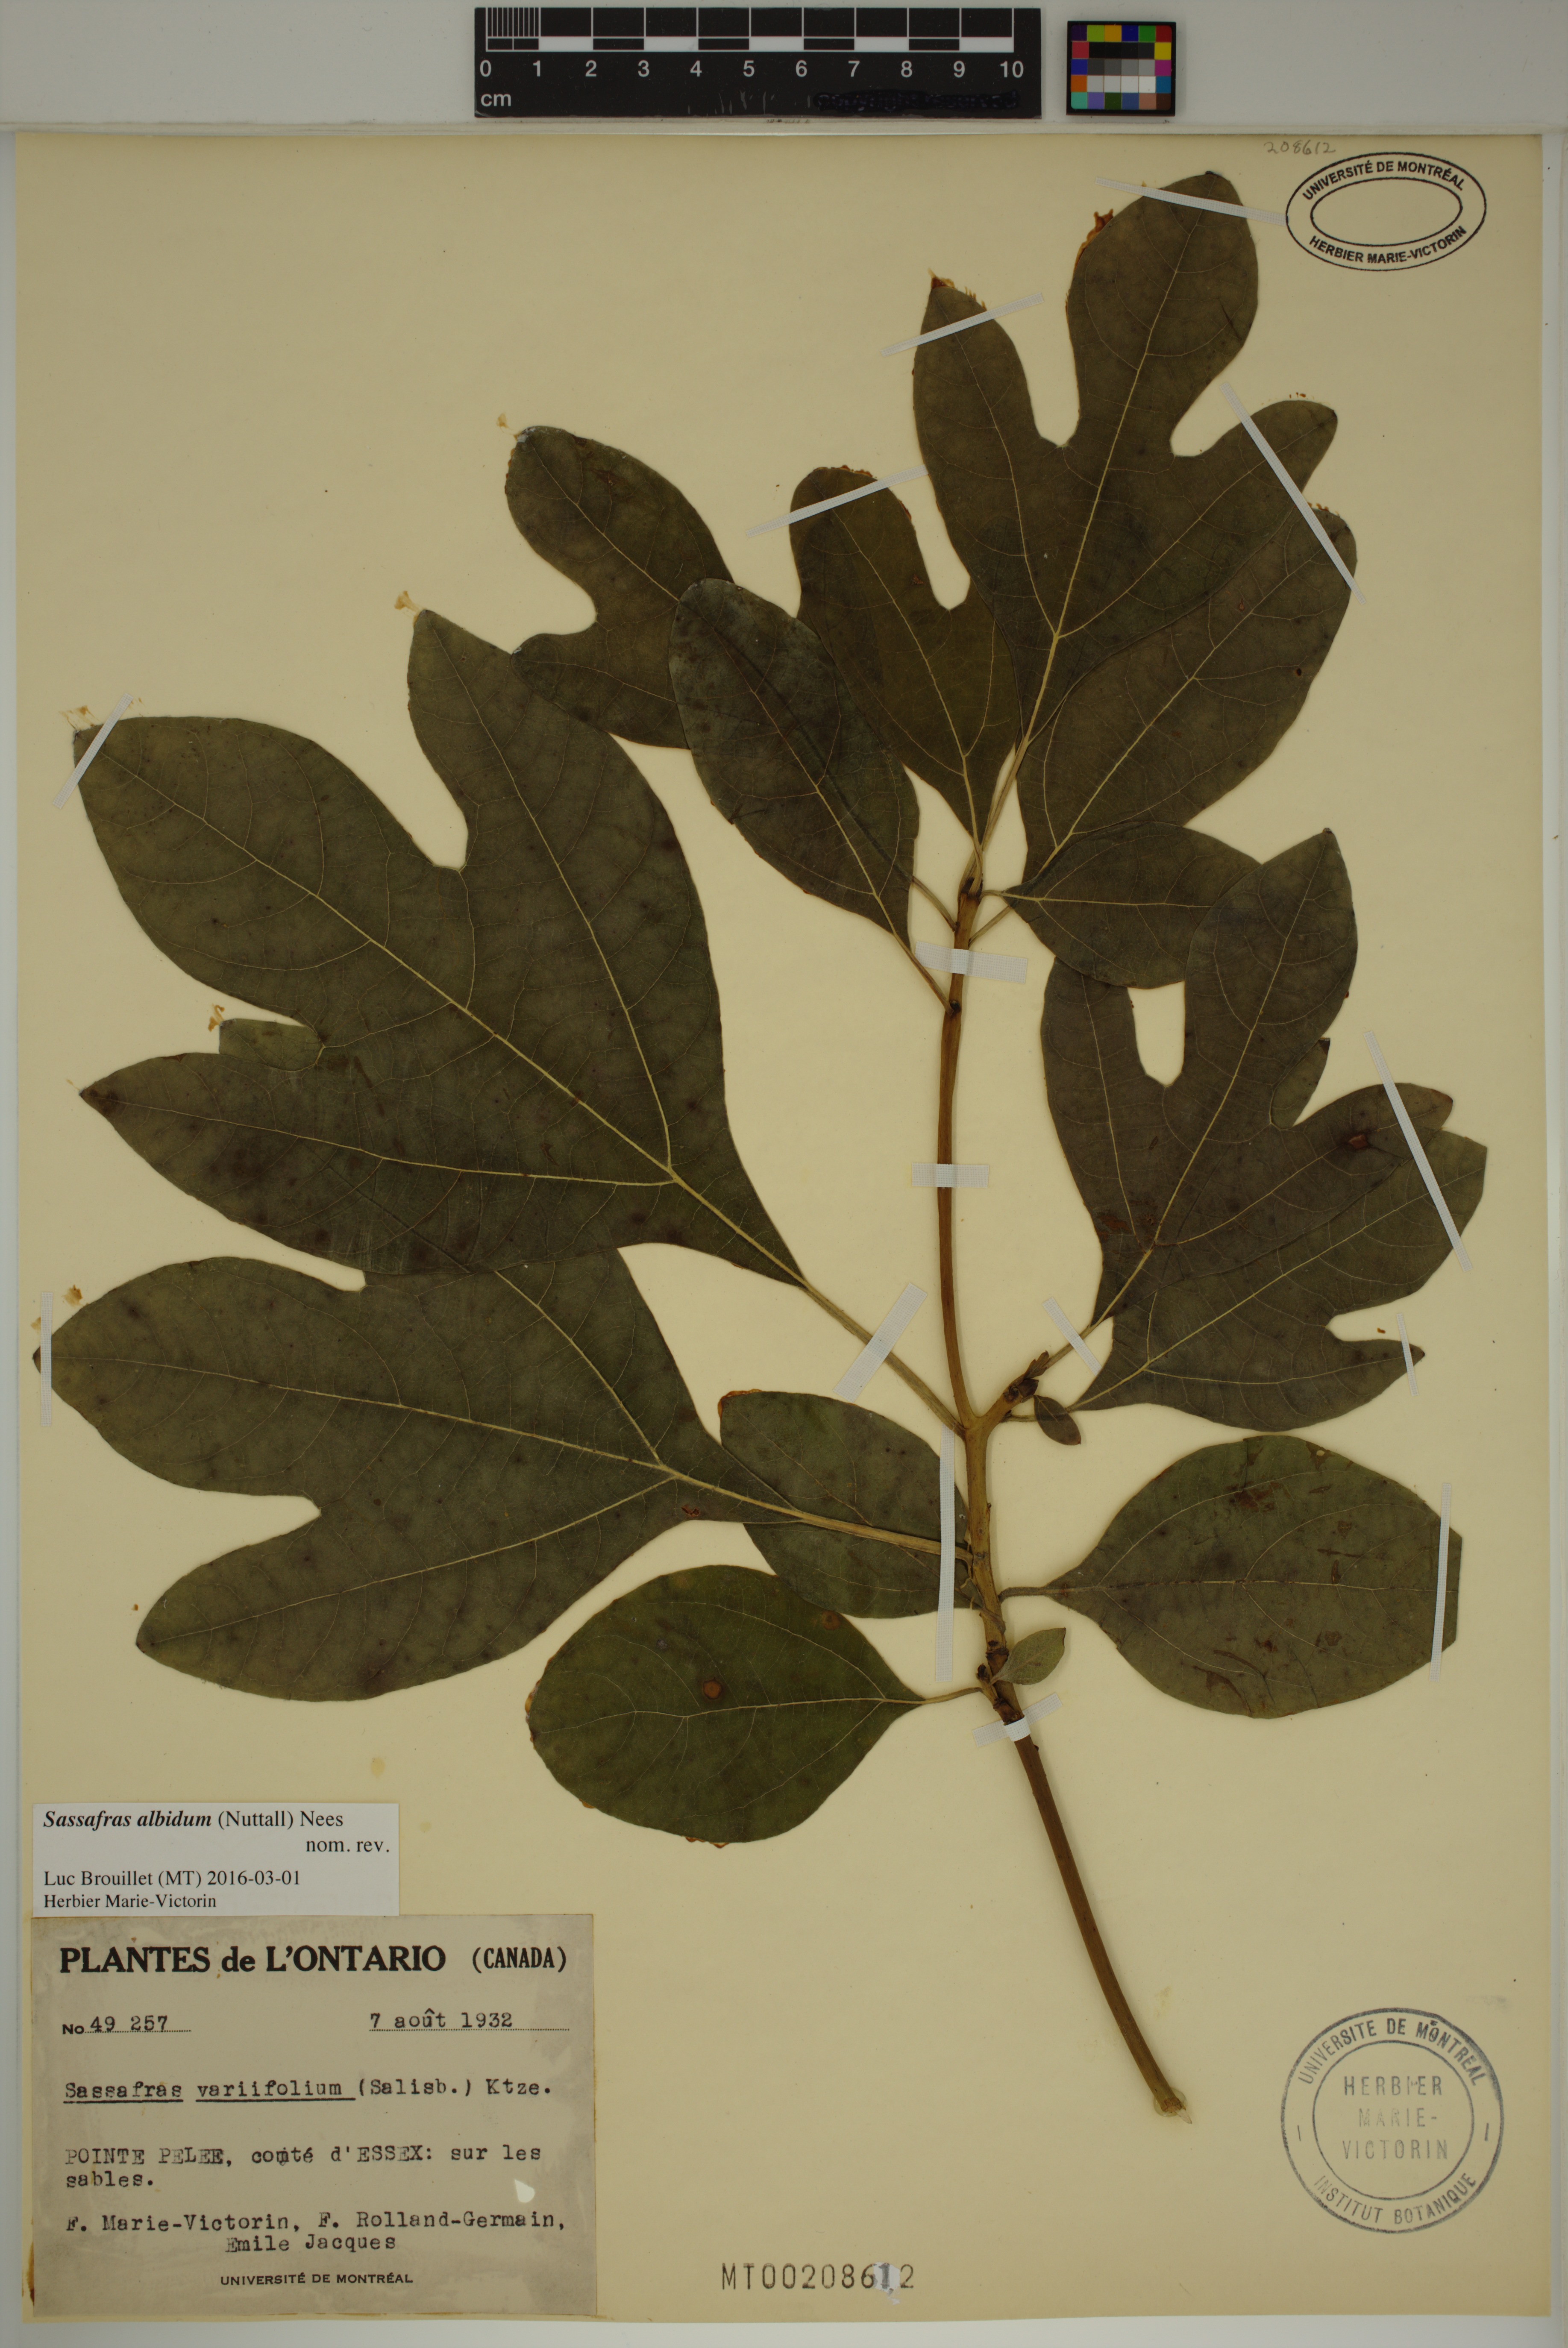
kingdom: Plantae
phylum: Tracheophyta
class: Magnoliopsida
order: Laurales
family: Lauraceae
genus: Sassafras
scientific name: Sassafras albidum
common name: Sassafras
